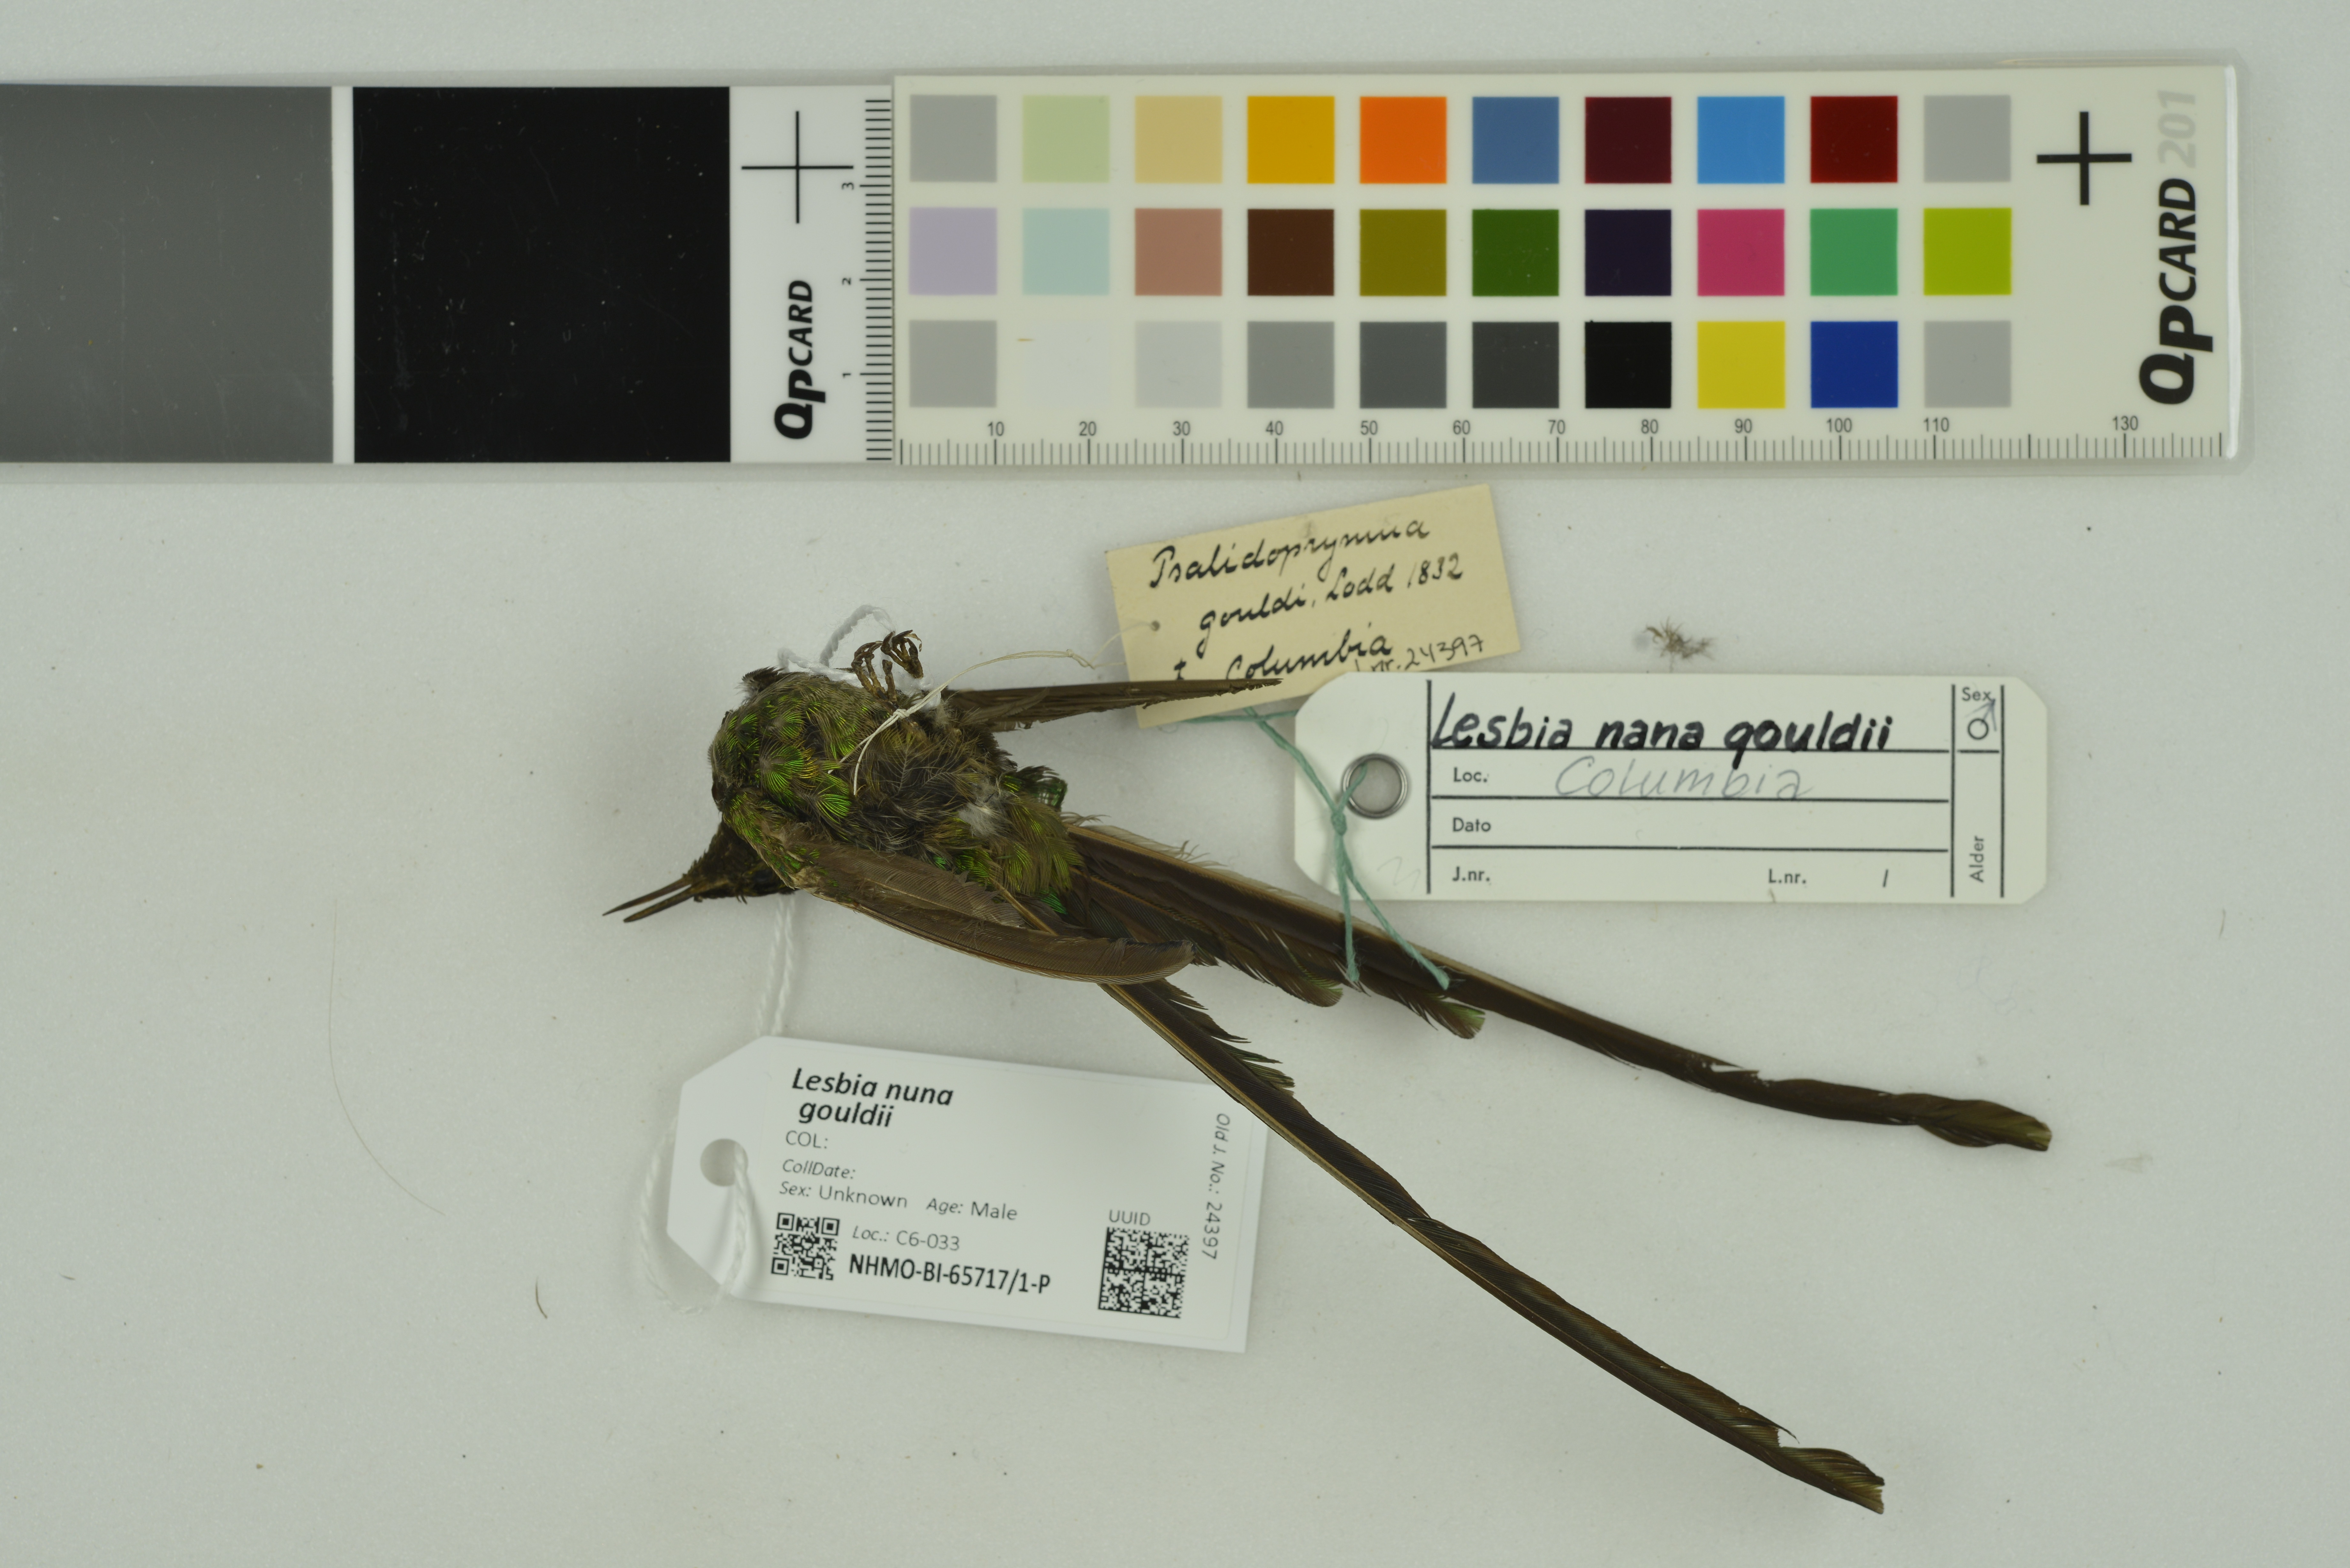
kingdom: Animalia
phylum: Chordata
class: Aves
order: Apodiformes
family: Trochilidae
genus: Lesbia
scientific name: Lesbia nuna
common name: Green-tailed trainbearer
